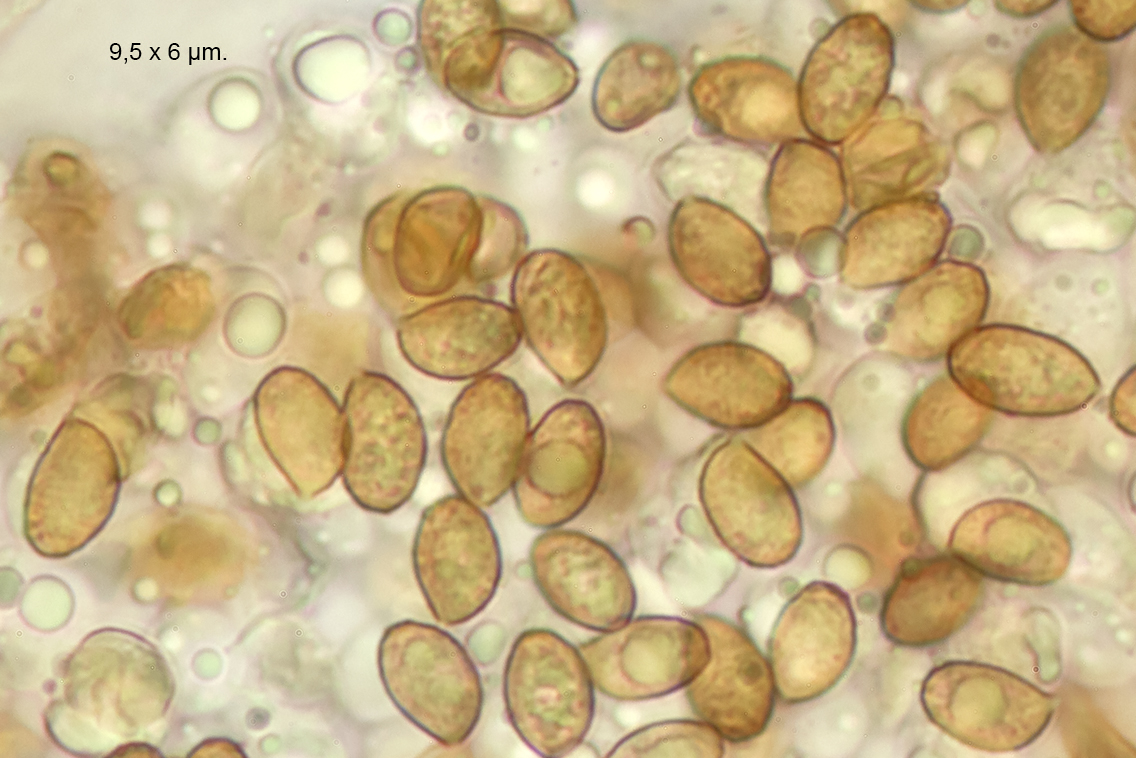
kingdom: Fungi
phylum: Basidiomycota
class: Agaricomycetes
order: Agaricales
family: Cortinariaceae
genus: Cortinarius
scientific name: Cortinarius
